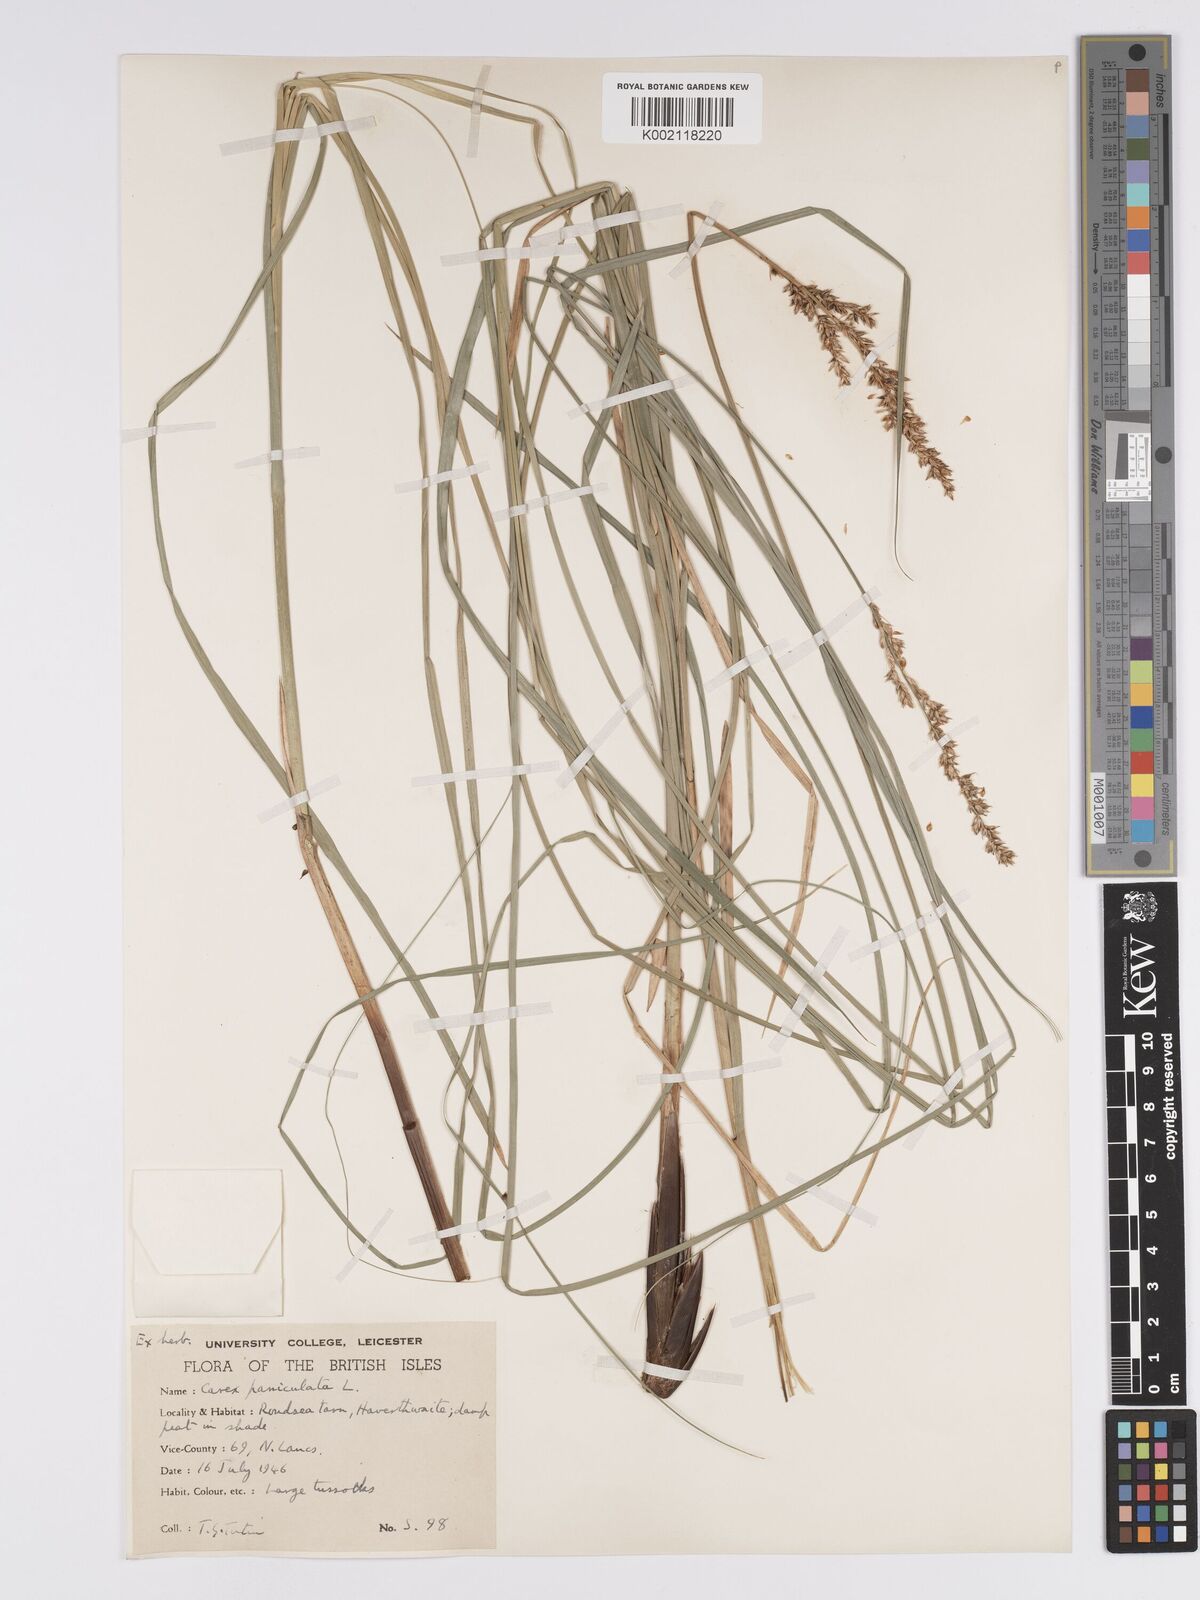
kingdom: Plantae
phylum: Tracheophyta
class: Liliopsida
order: Poales
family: Cyperaceae
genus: Carex
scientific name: Carex
